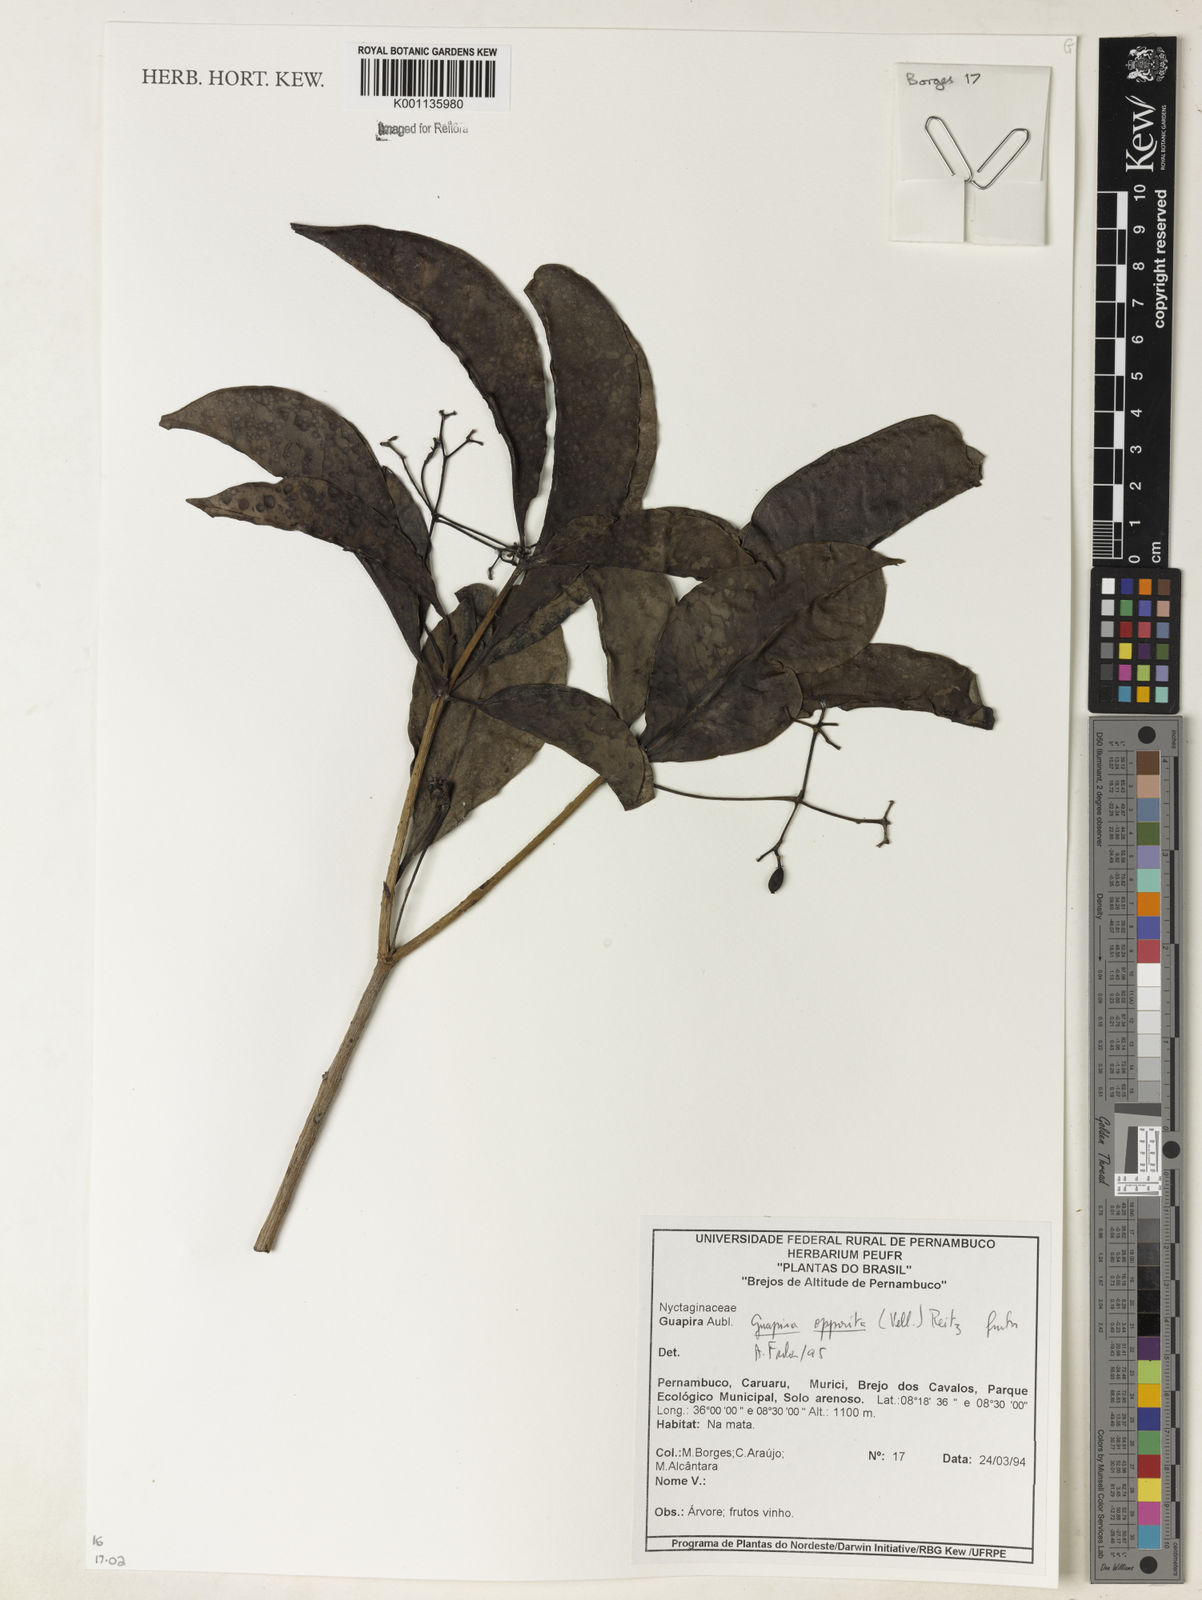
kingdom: Plantae
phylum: Tracheophyta
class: Magnoliopsida
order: Caryophyllales
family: Nyctaginaceae
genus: Guapira
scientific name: Guapira opposita
